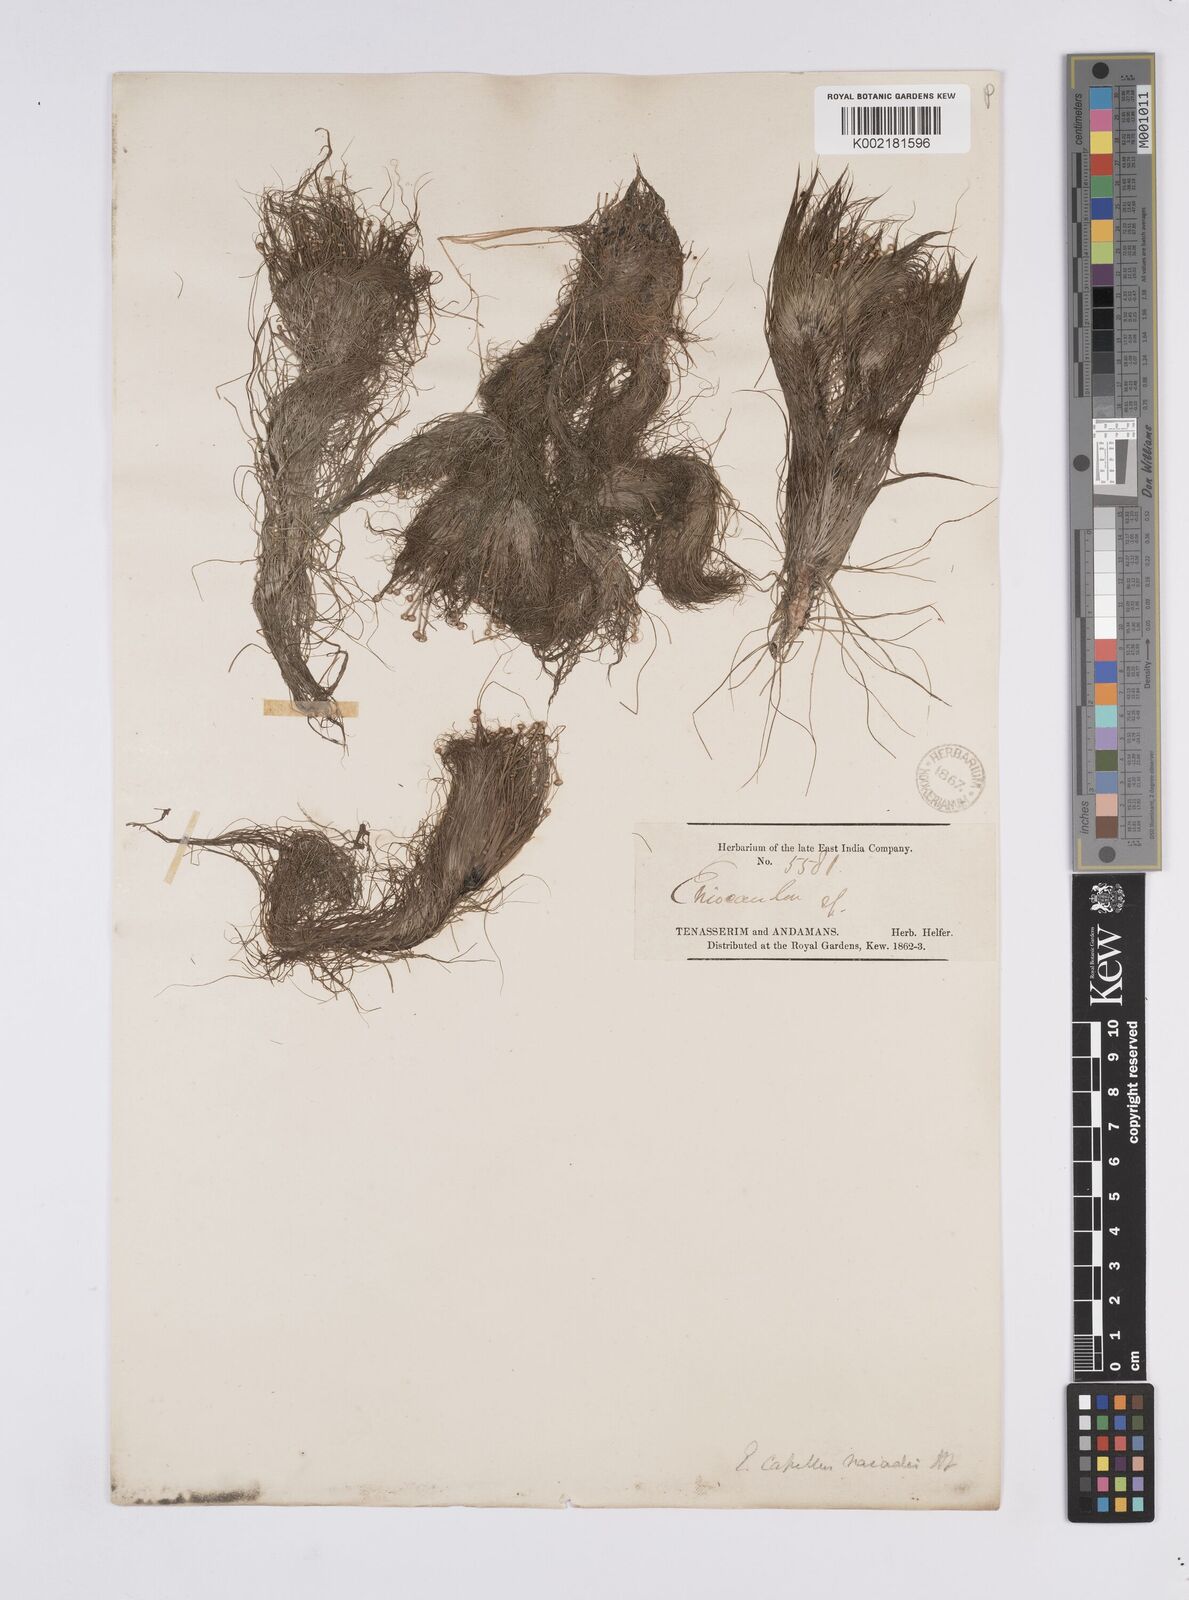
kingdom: Plantae
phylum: Tracheophyta
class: Liliopsida
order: Poales
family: Eriocaulaceae
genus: Eriocaulon
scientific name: Eriocaulon setaceum
